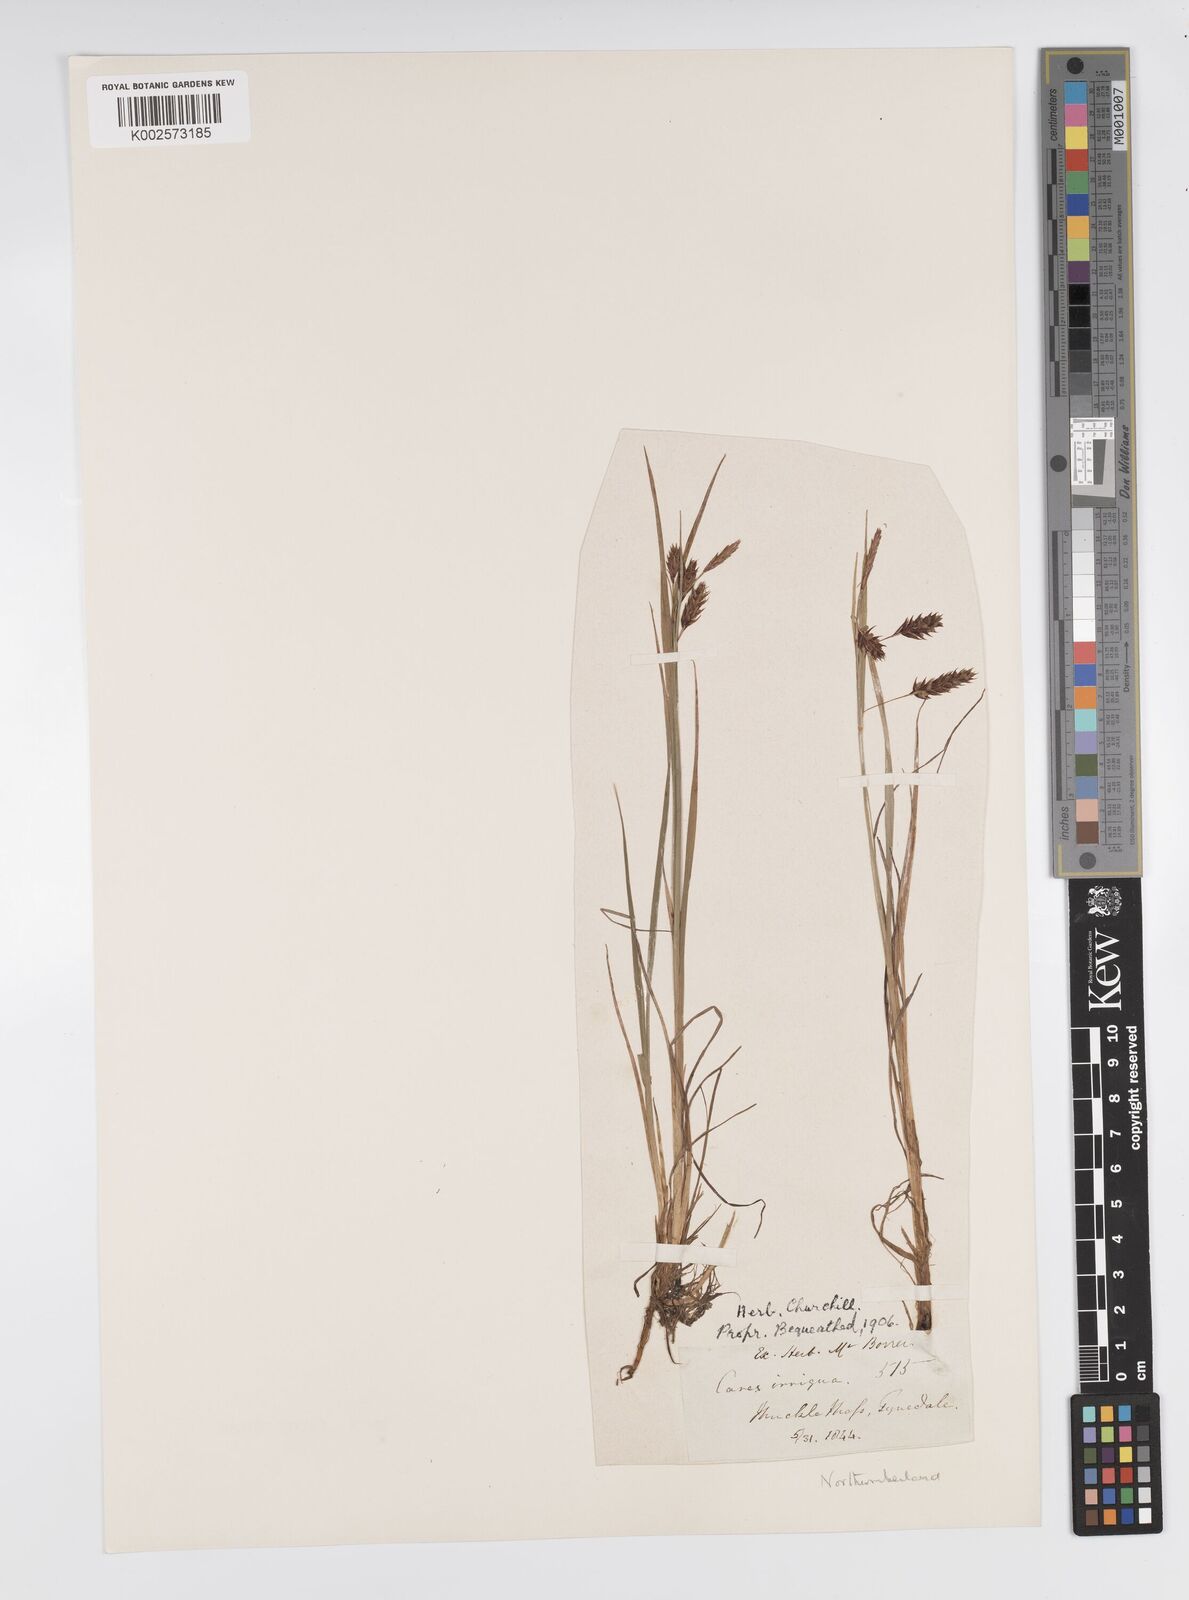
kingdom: Plantae
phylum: Tracheophyta
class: Liliopsida
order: Poales
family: Cyperaceae
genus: Carex
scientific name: Carex magellanica
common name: Bog sedge
